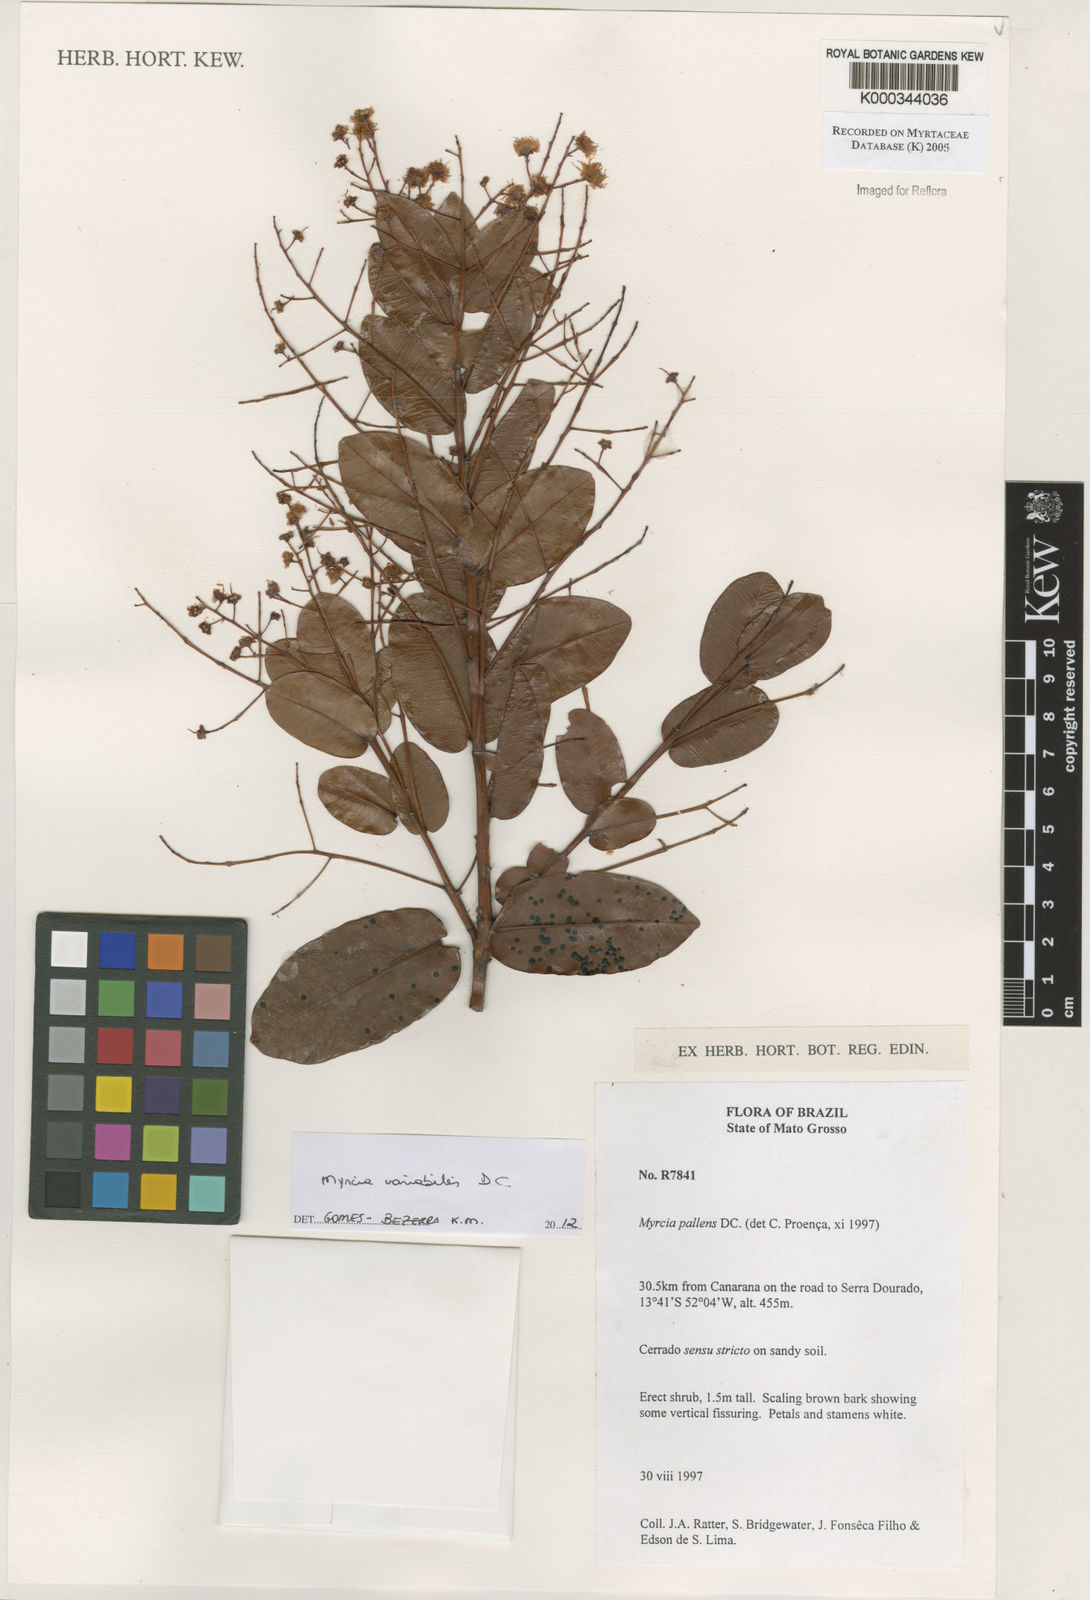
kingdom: Plantae
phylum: Tracheophyta
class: Magnoliopsida
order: Myrtales
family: Myrtaceae
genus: Myrcia
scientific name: Myrcia guianensis
